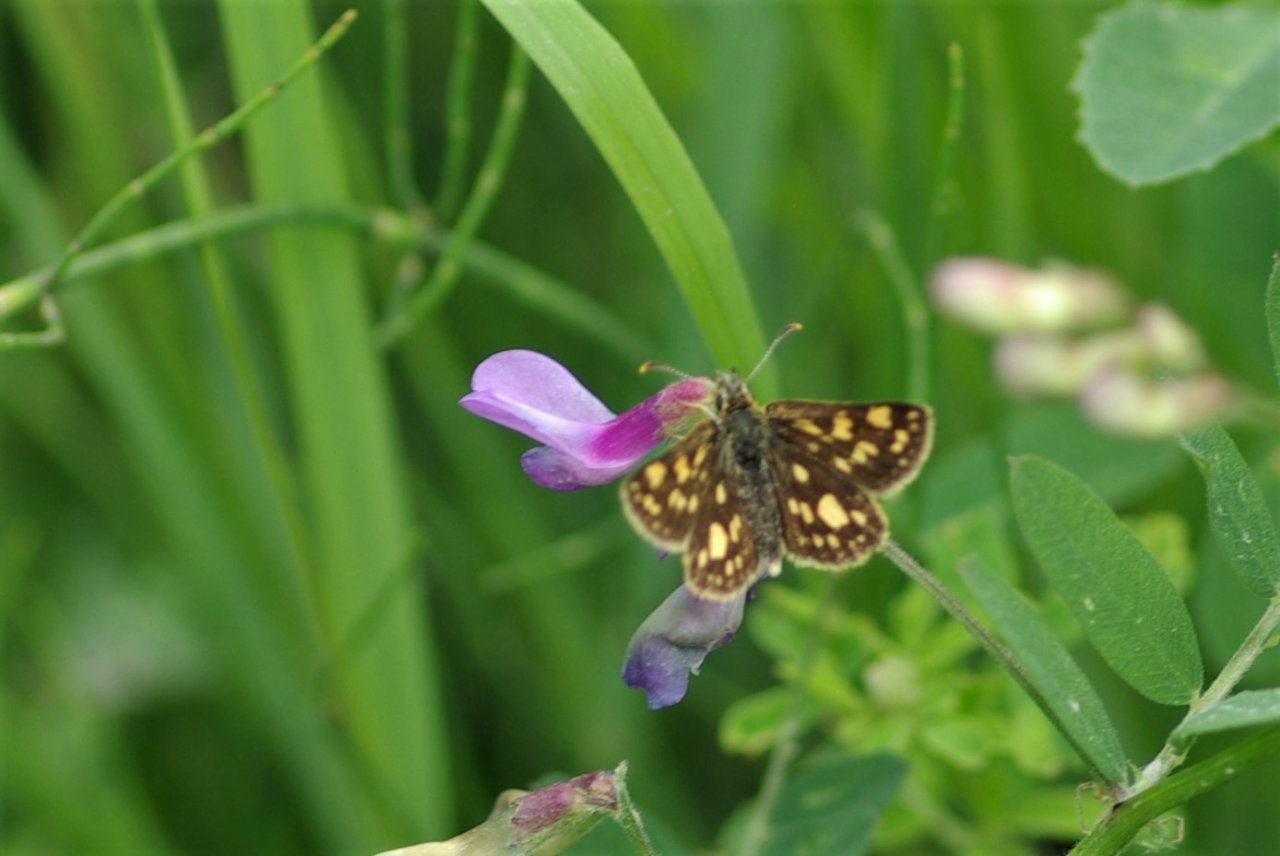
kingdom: Animalia
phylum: Arthropoda
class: Insecta
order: Lepidoptera
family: Hesperiidae
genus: Carterocephalus
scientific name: Carterocephalus palaemon
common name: Chequered Skipper
